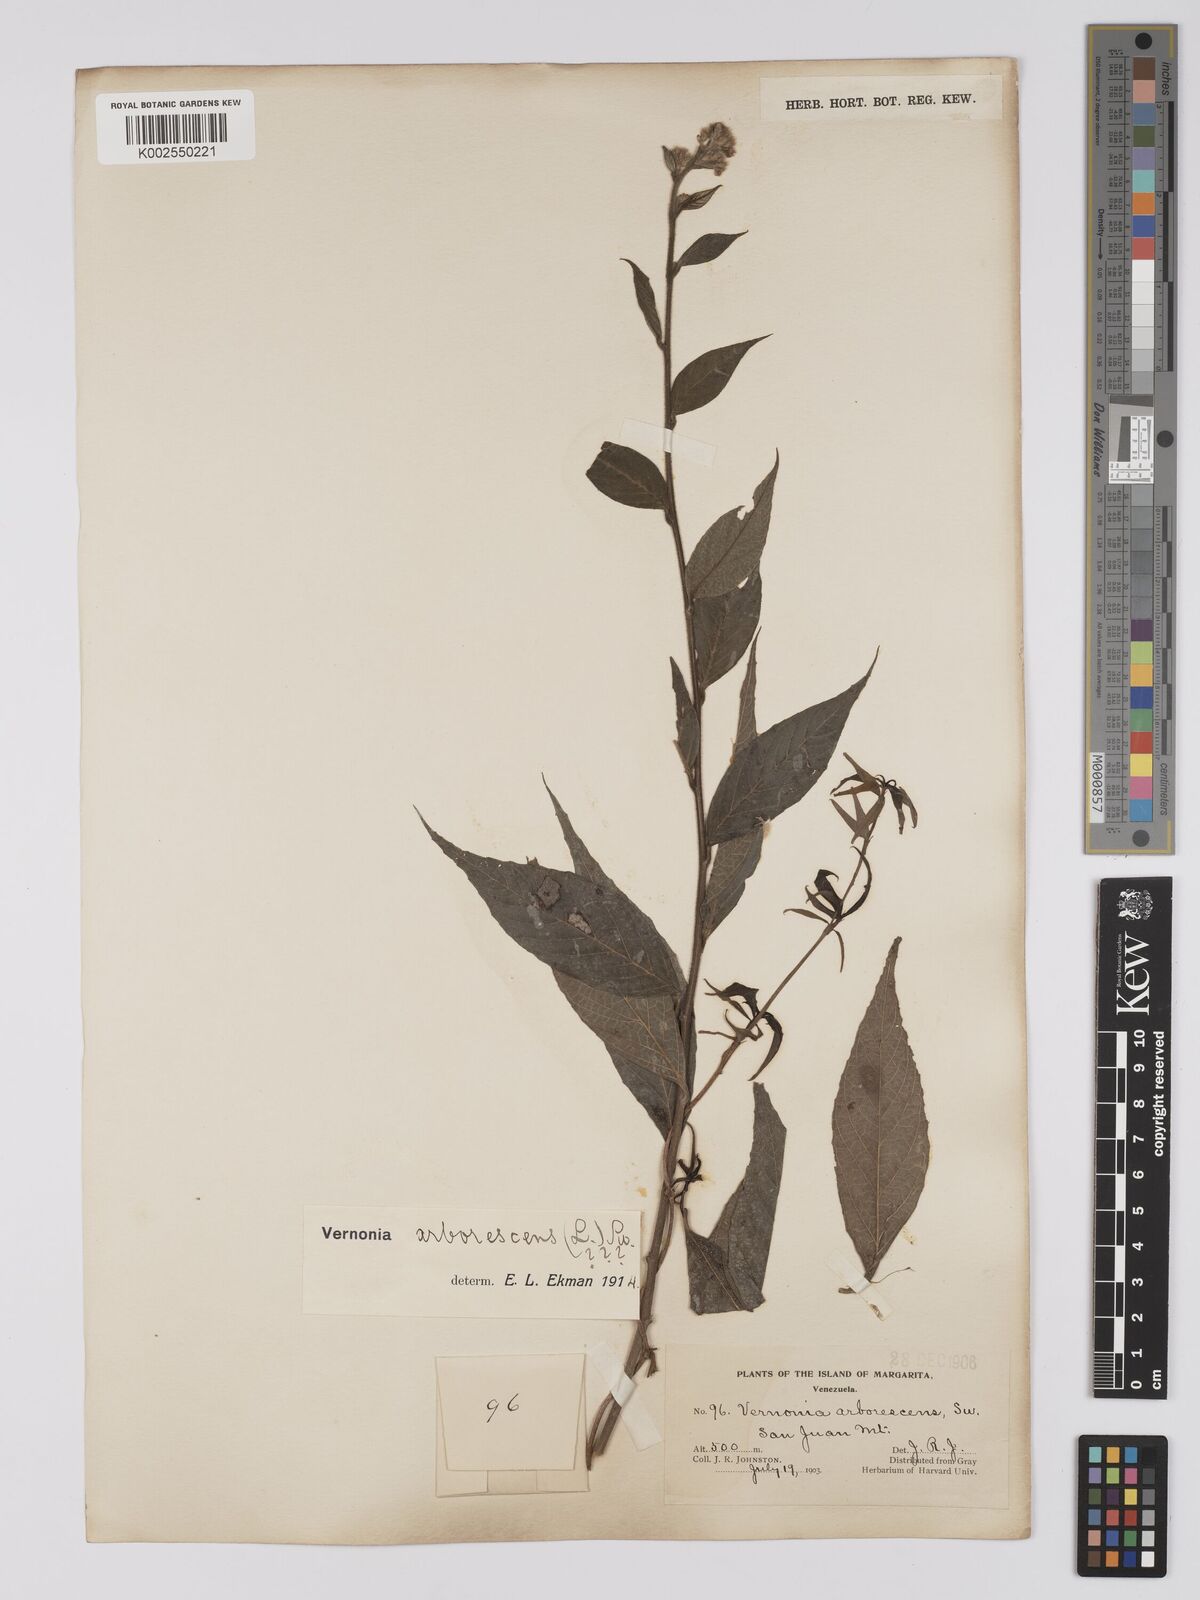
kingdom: Plantae
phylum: Tracheophyta
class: Magnoliopsida
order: Asterales
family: Asteraceae
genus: Lepidaploa
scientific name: Lepidaploa arborescens
